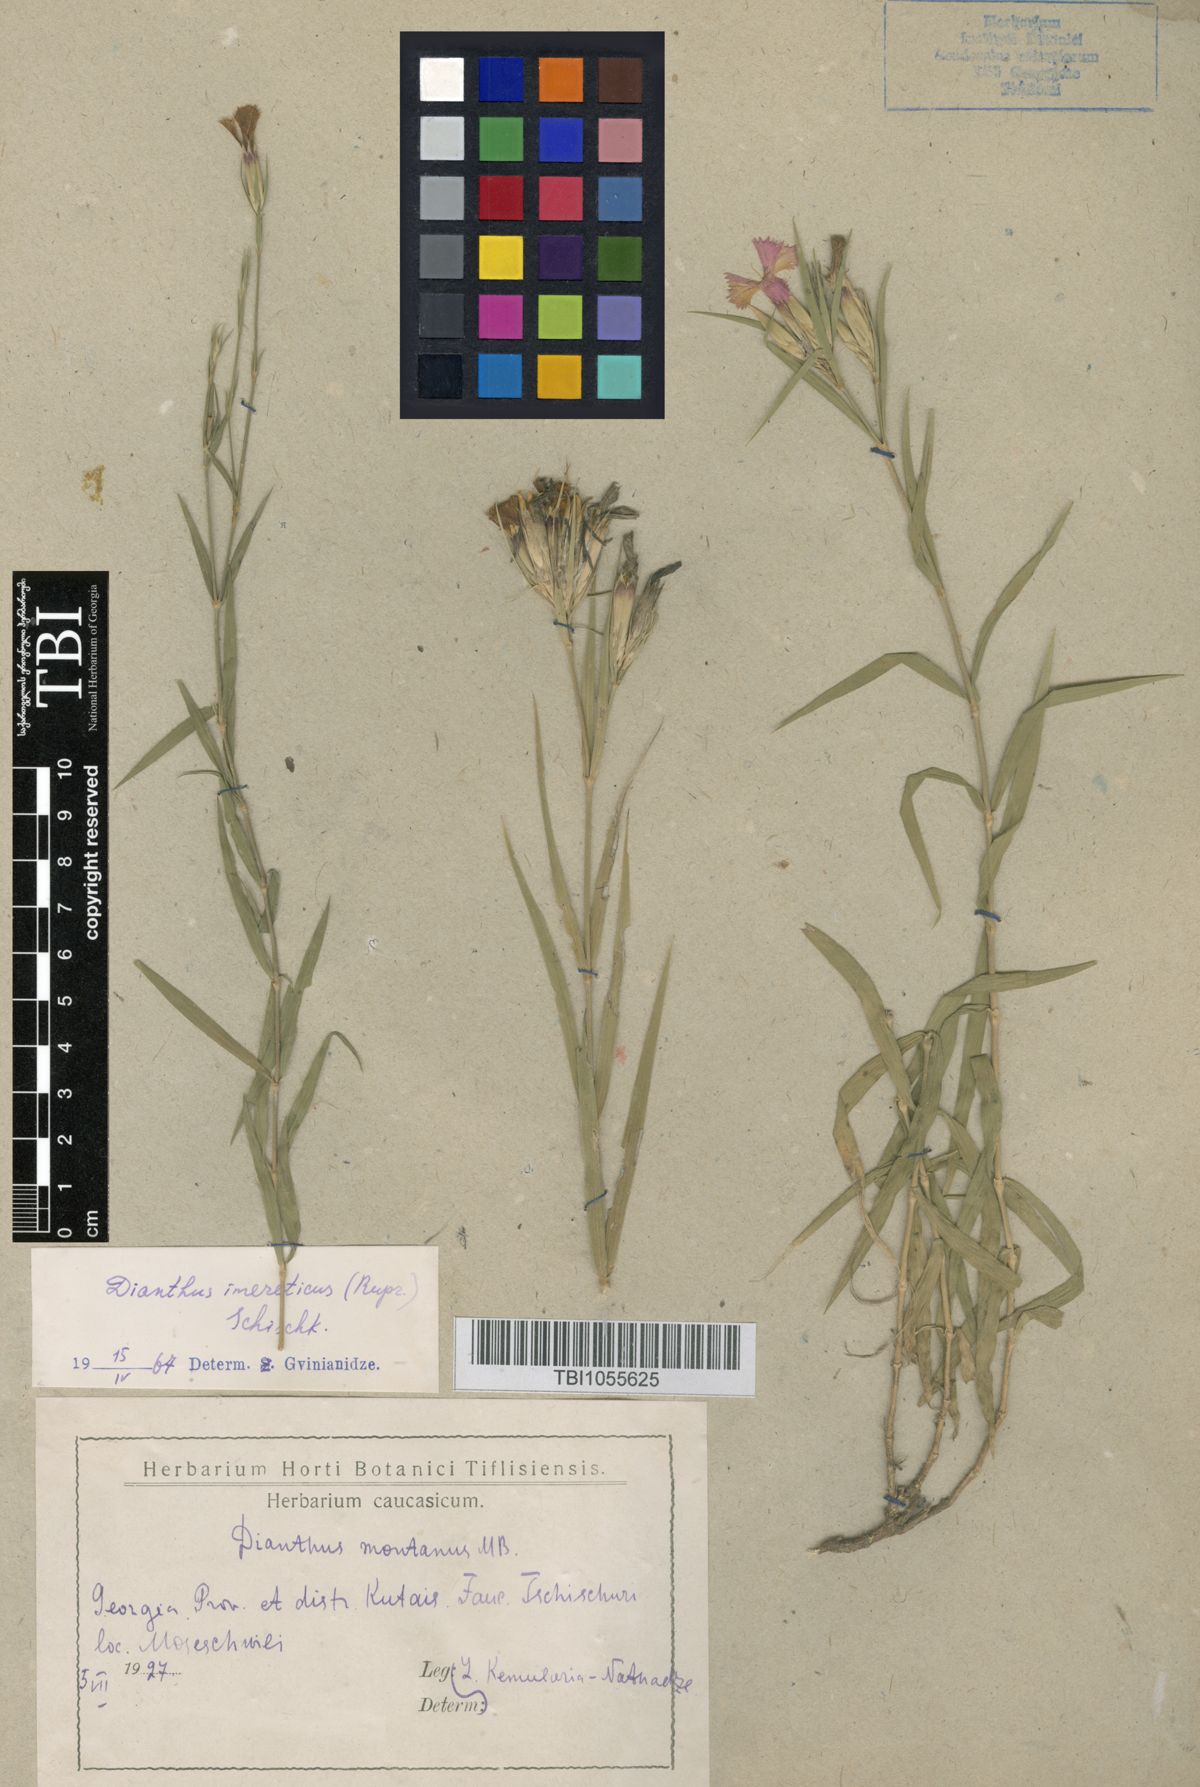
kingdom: Plantae
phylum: Tracheophyta
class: Magnoliopsida
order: Caryophyllales
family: Caryophyllaceae
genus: Dianthus
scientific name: Dianthus imereticus
